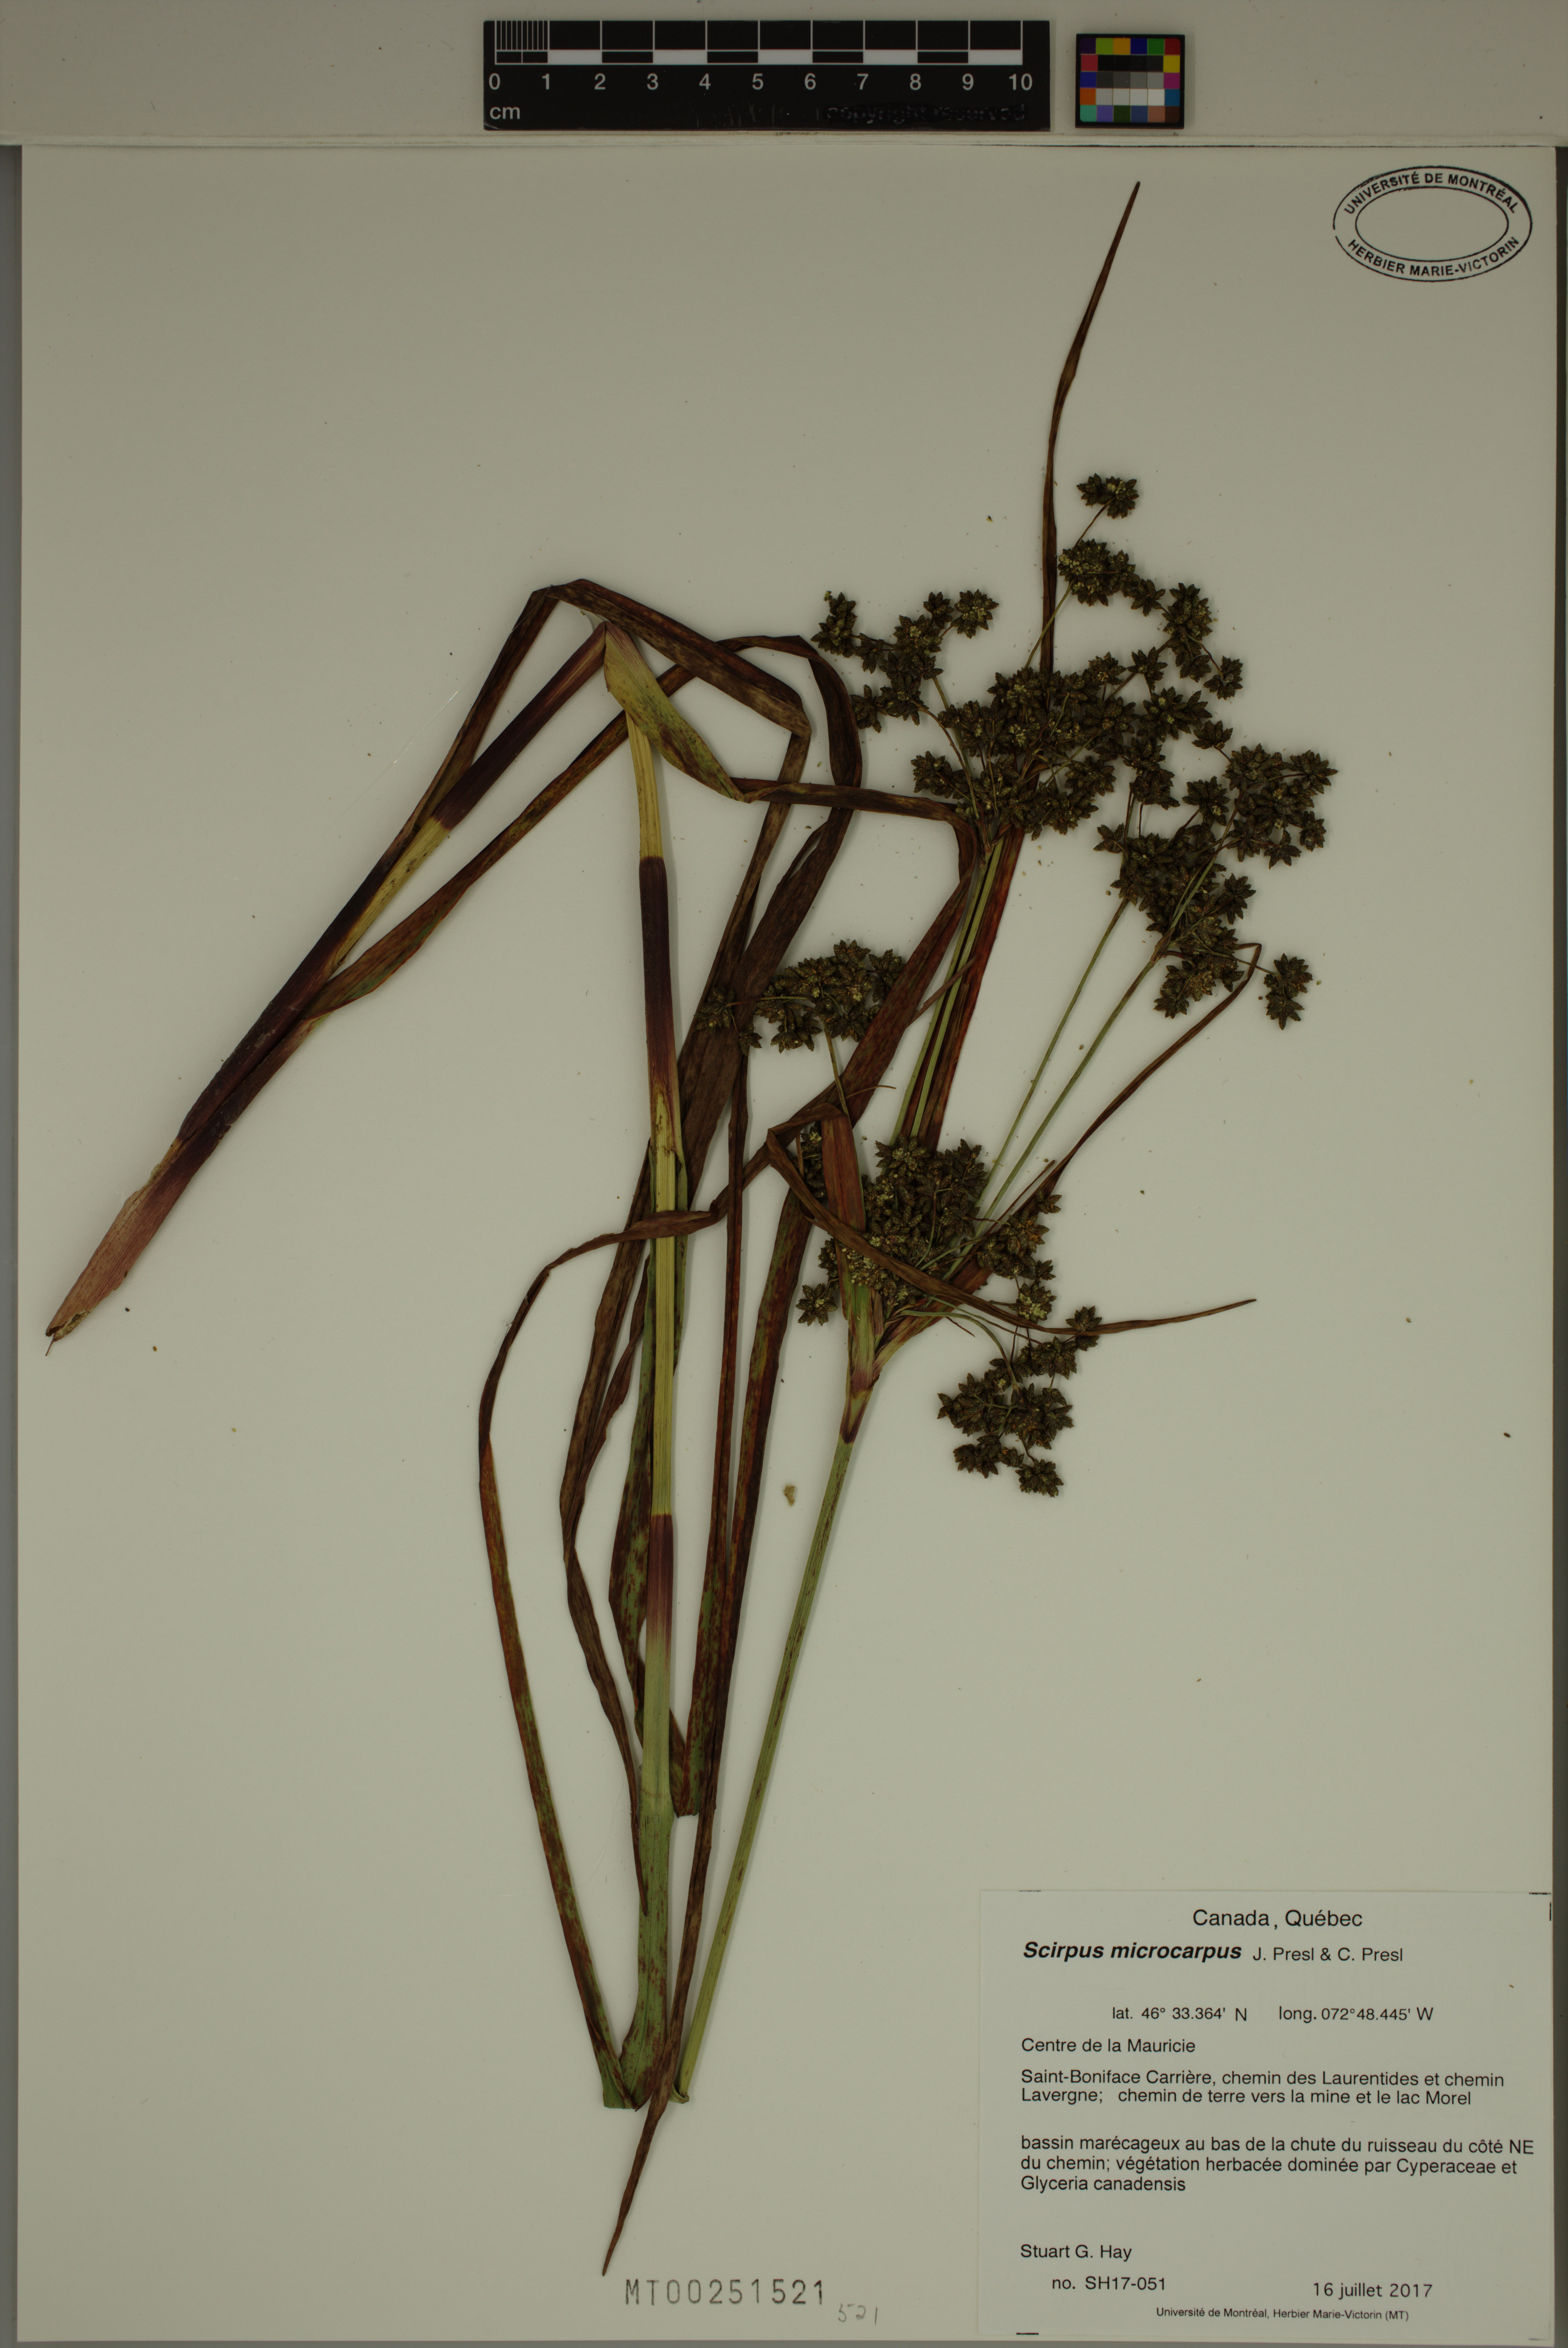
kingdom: Plantae
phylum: Tracheophyta
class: Liliopsida
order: Poales
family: Cyperaceae
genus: Scirpus
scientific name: Scirpus microcarpus
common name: Panicled bulrush
